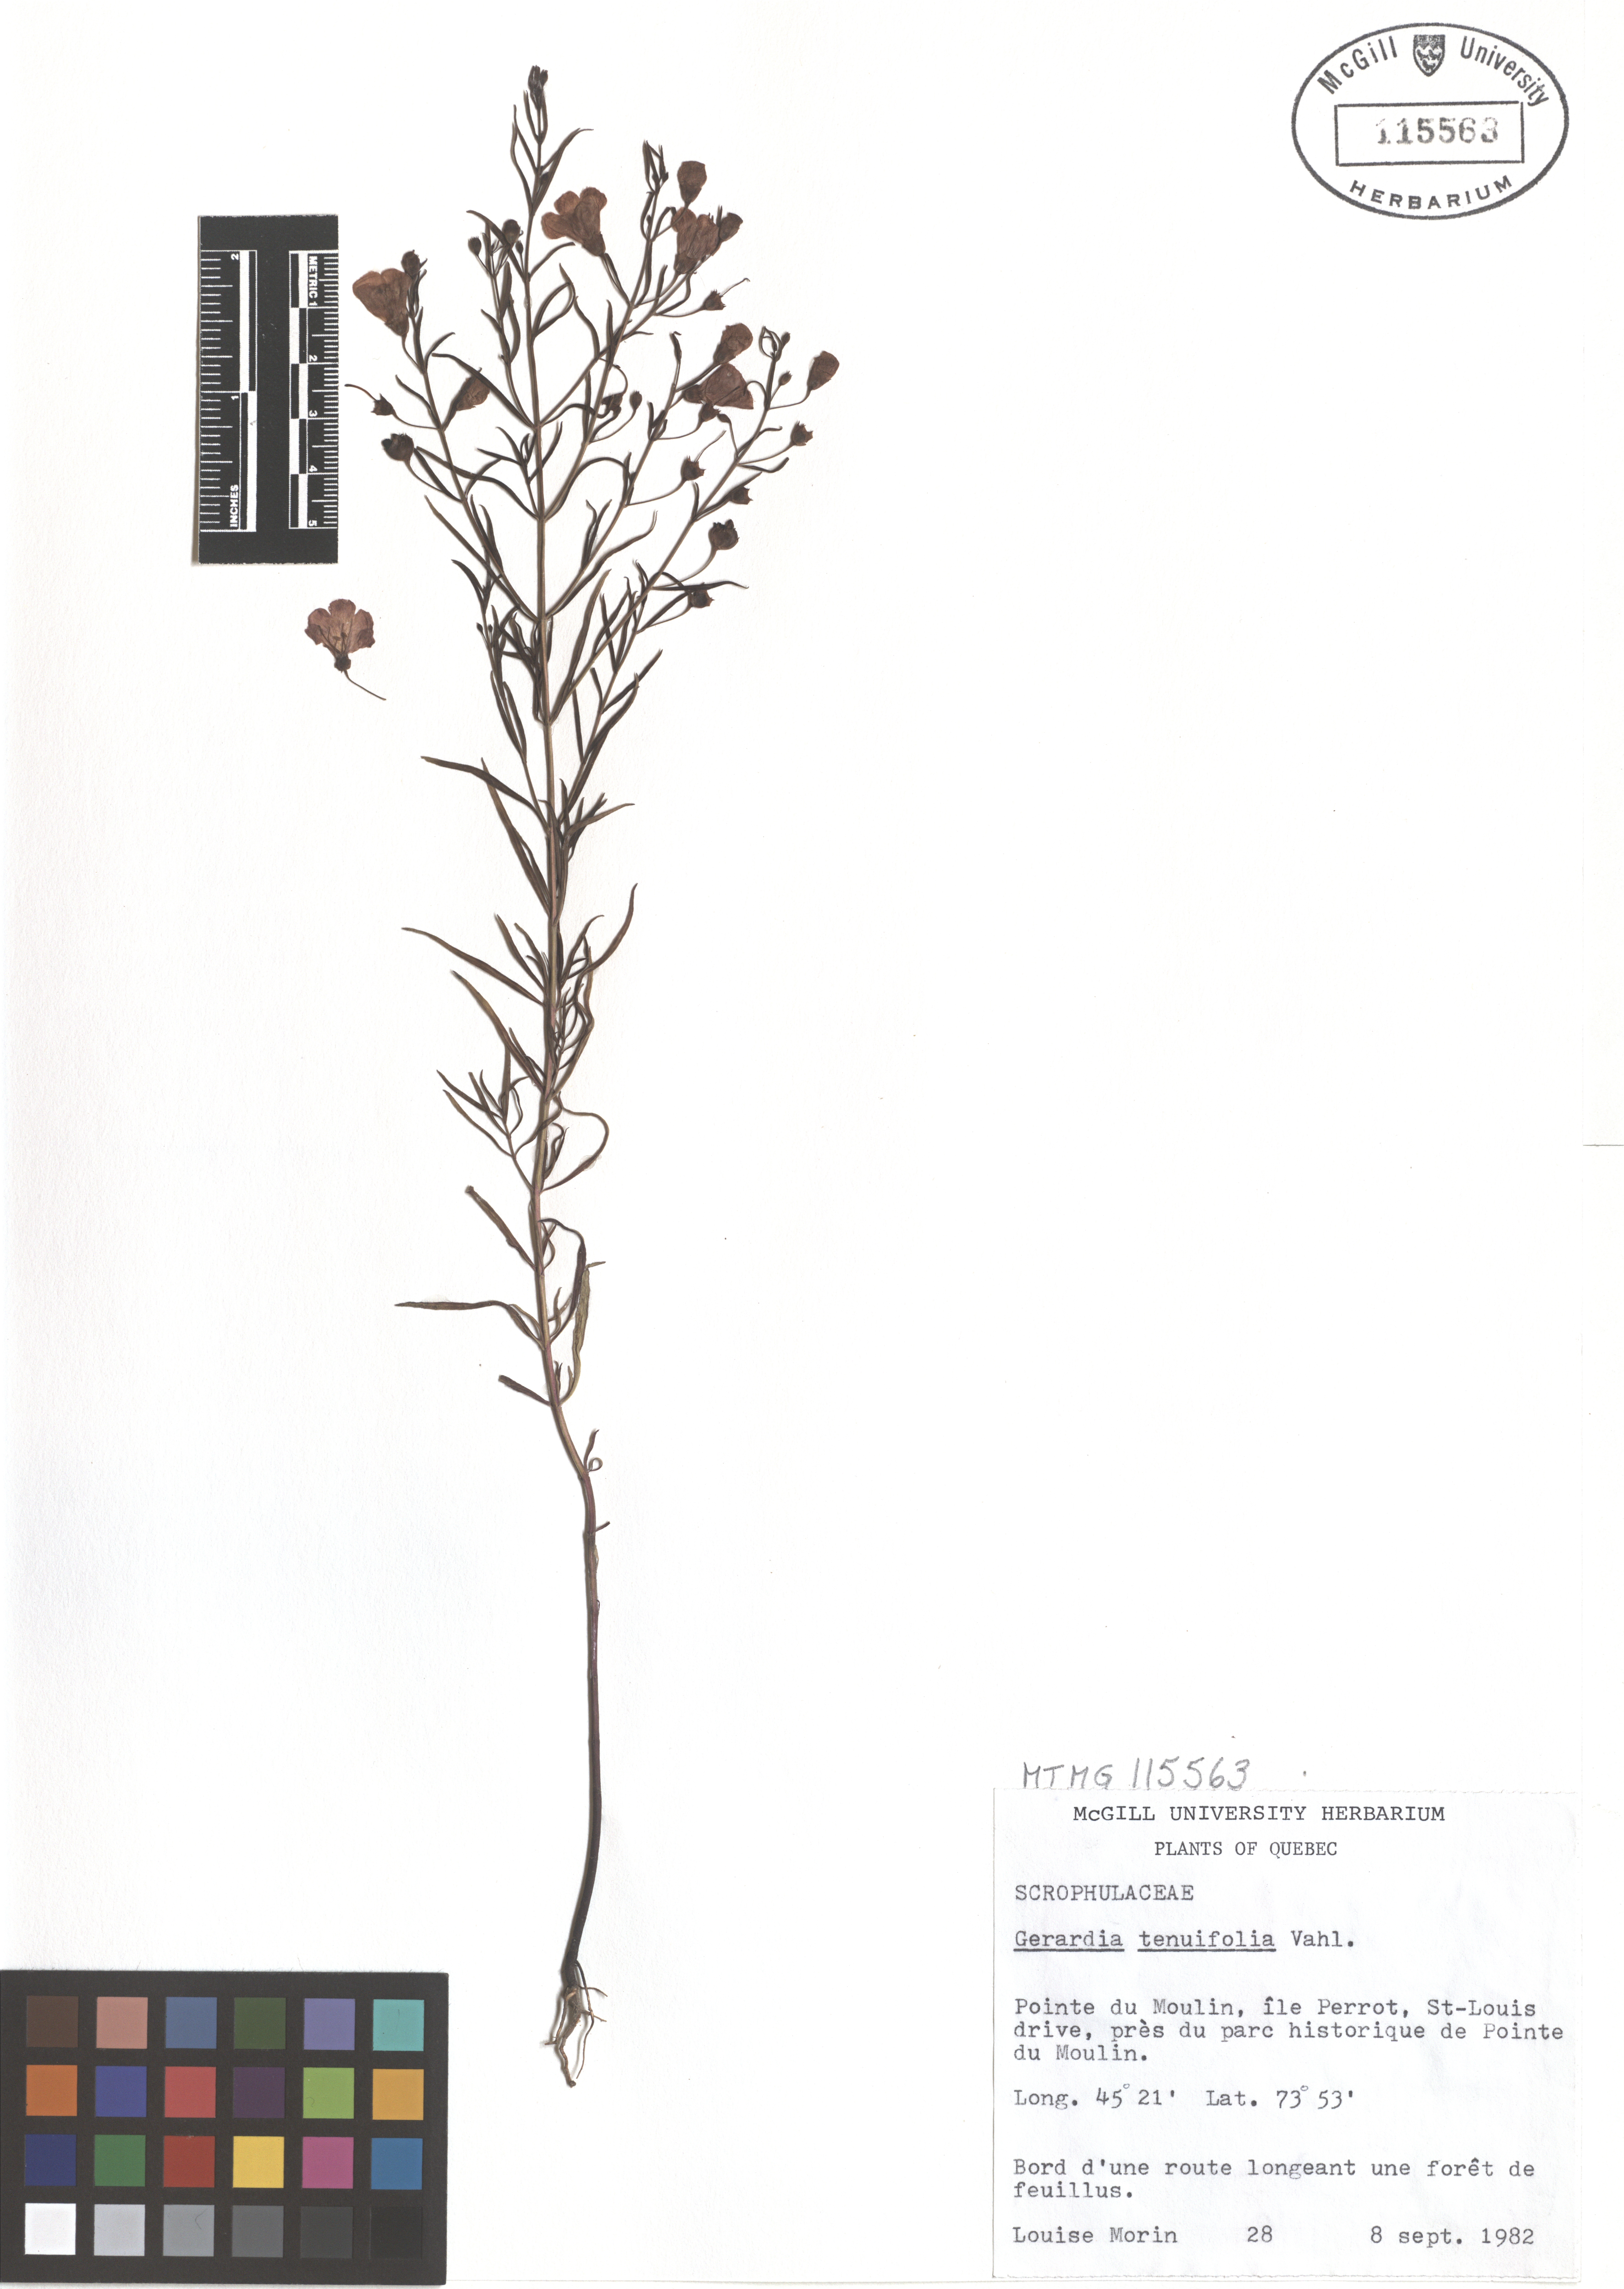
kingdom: Plantae
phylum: Tracheophyta
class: Magnoliopsida
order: Lamiales
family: Orobanchaceae
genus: Agalinis
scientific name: Agalinis tenuifolia
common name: Slender agalinis
